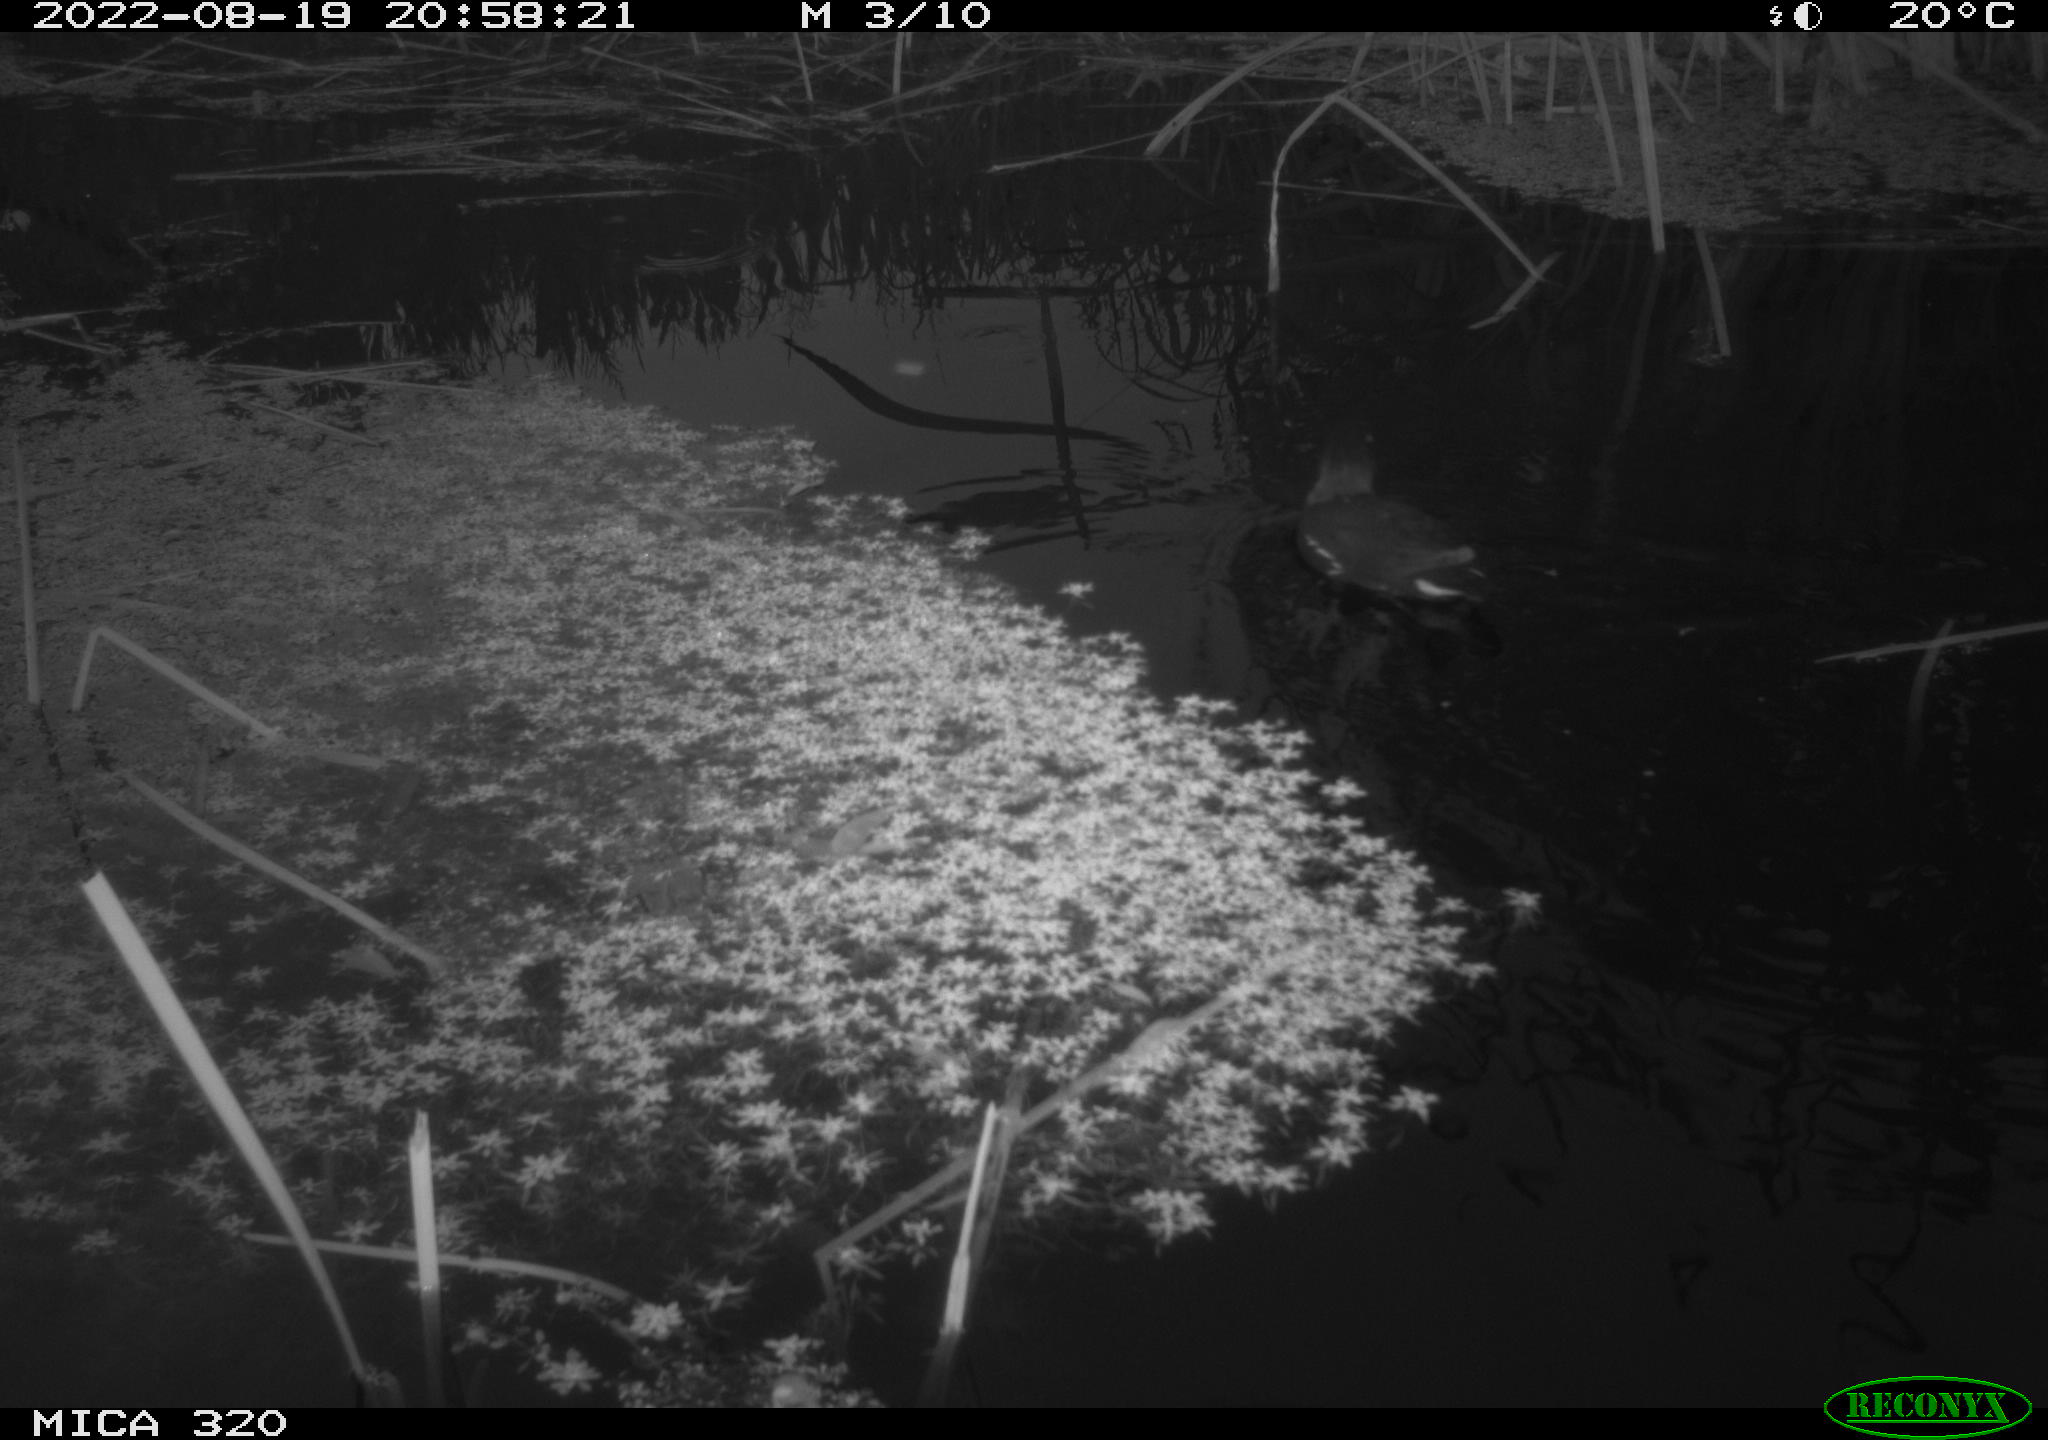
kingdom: Animalia
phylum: Chordata
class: Aves
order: Gruiformes
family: Rallidae
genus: Gallinula
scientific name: Gallinula chloropus
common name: Common moorhen
